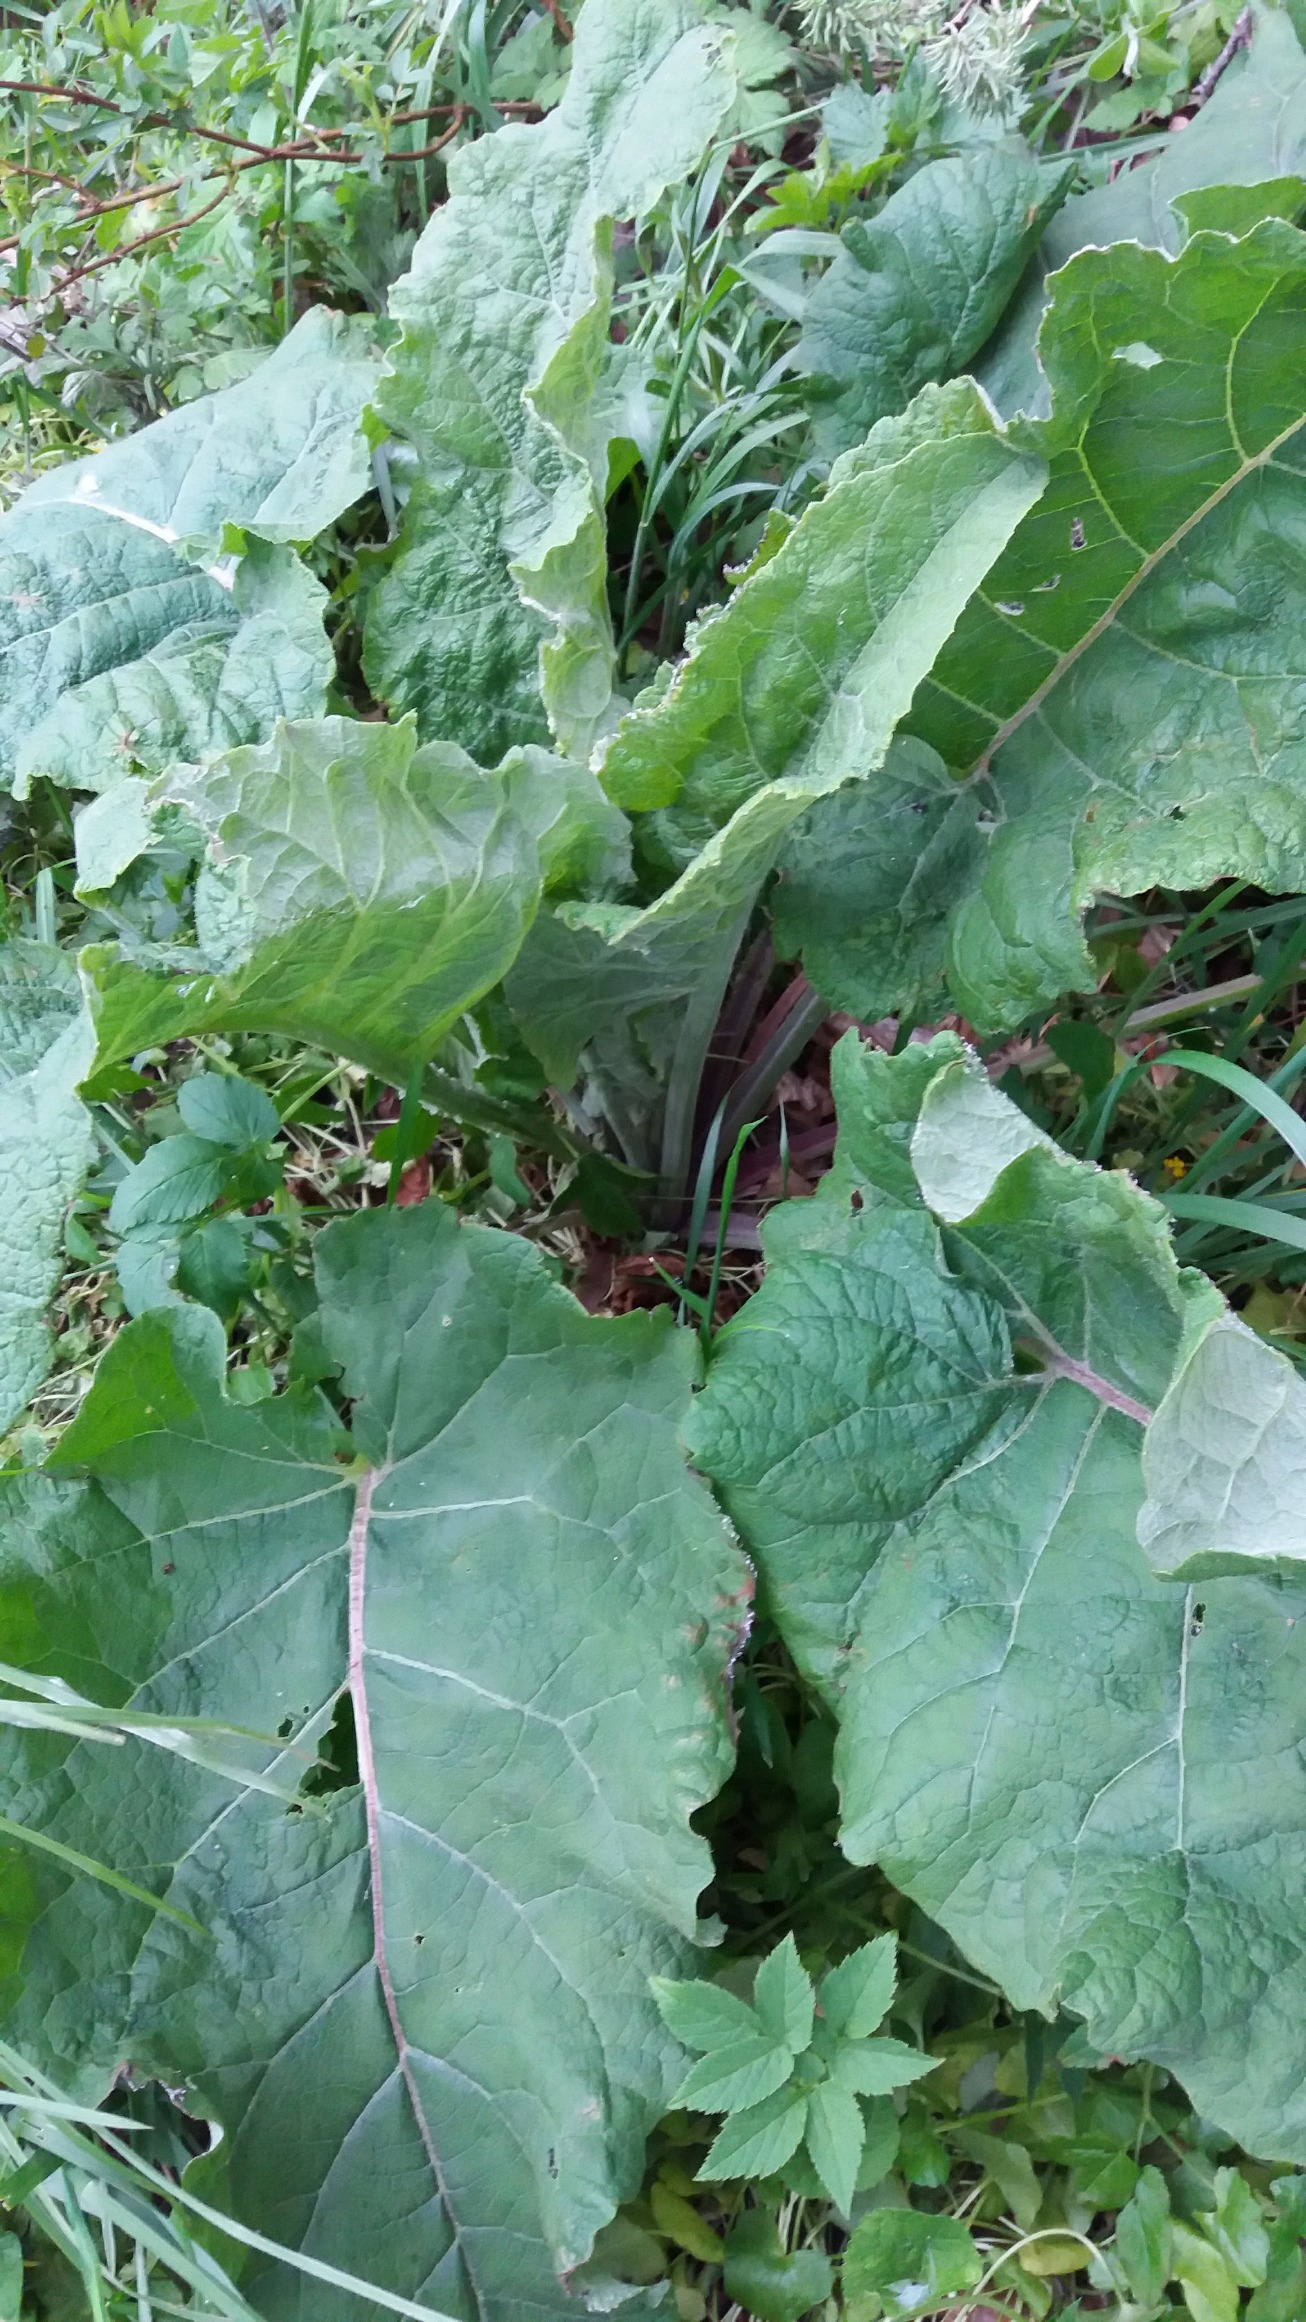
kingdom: Plantae
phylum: Tracheophyta
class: Magnoliopsida
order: Asterales
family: Asteraceae
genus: Arctium
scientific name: Arctium
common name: Burreslægten
